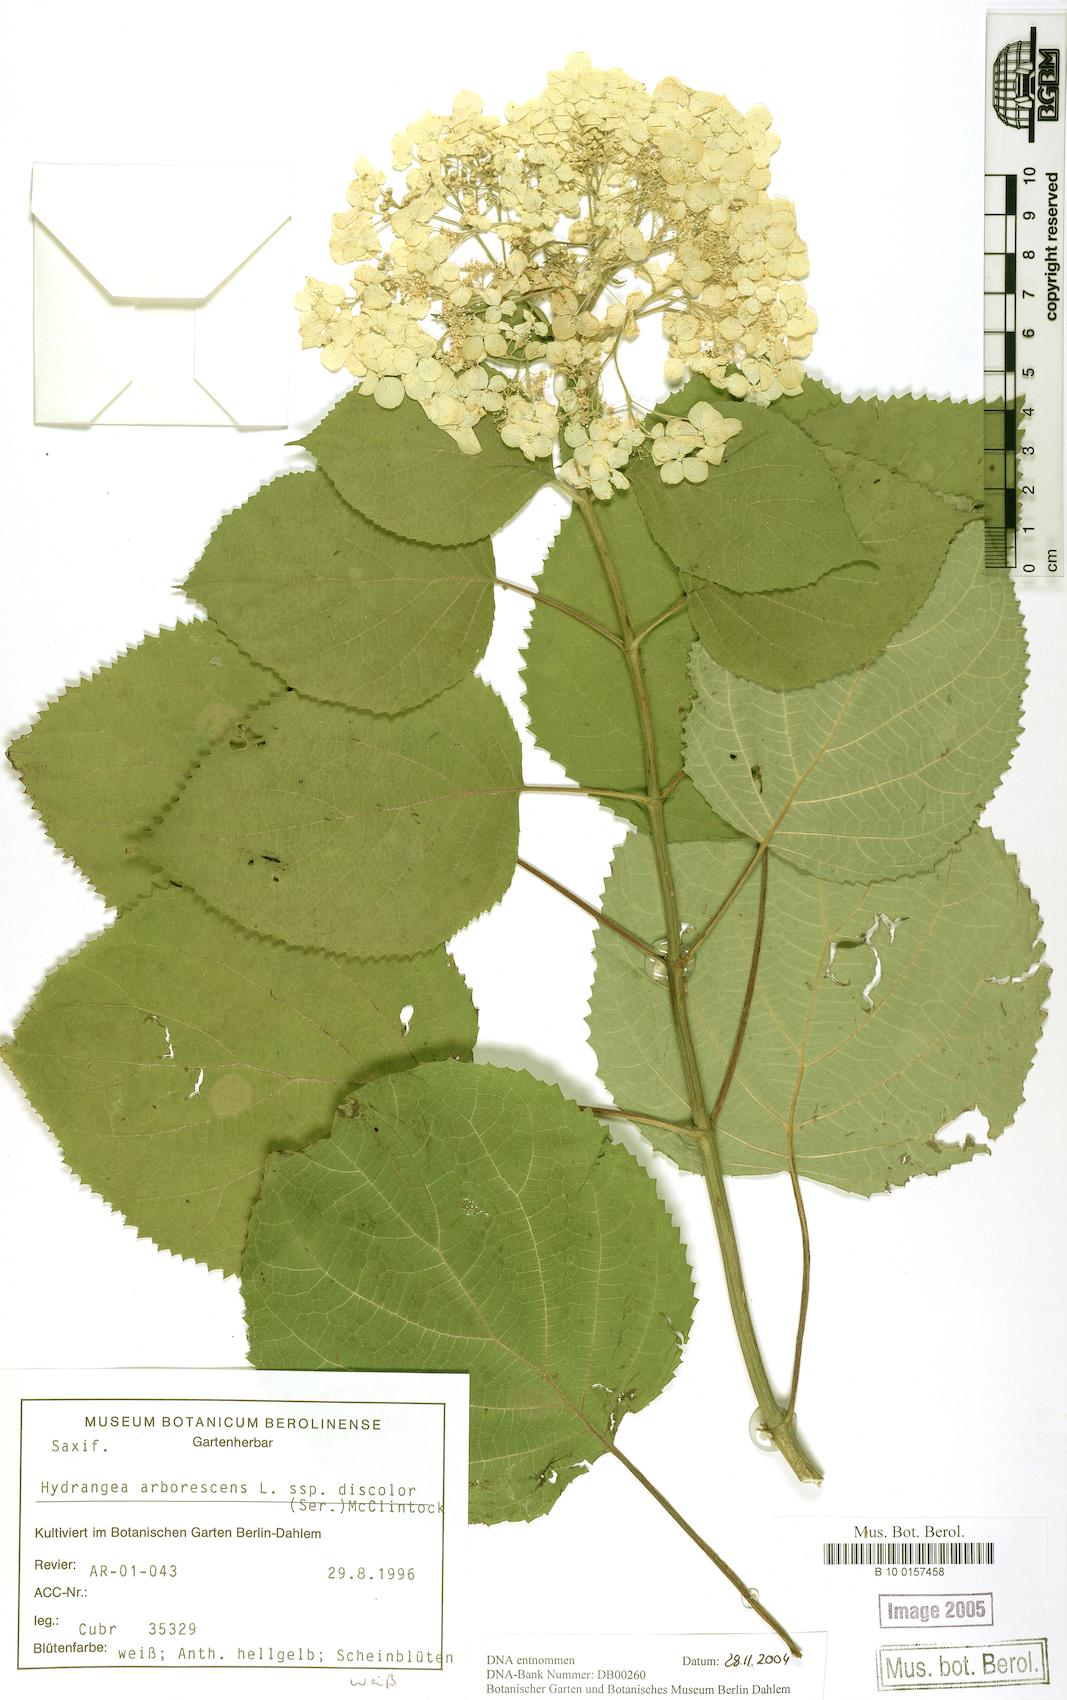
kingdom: Plantae
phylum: Tracheophyta
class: Magnoliopsida
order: Cornales
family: Hydrangeaceae
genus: Hydrangea
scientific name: Hydrangea cinerea
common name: Ashy hydrangea
